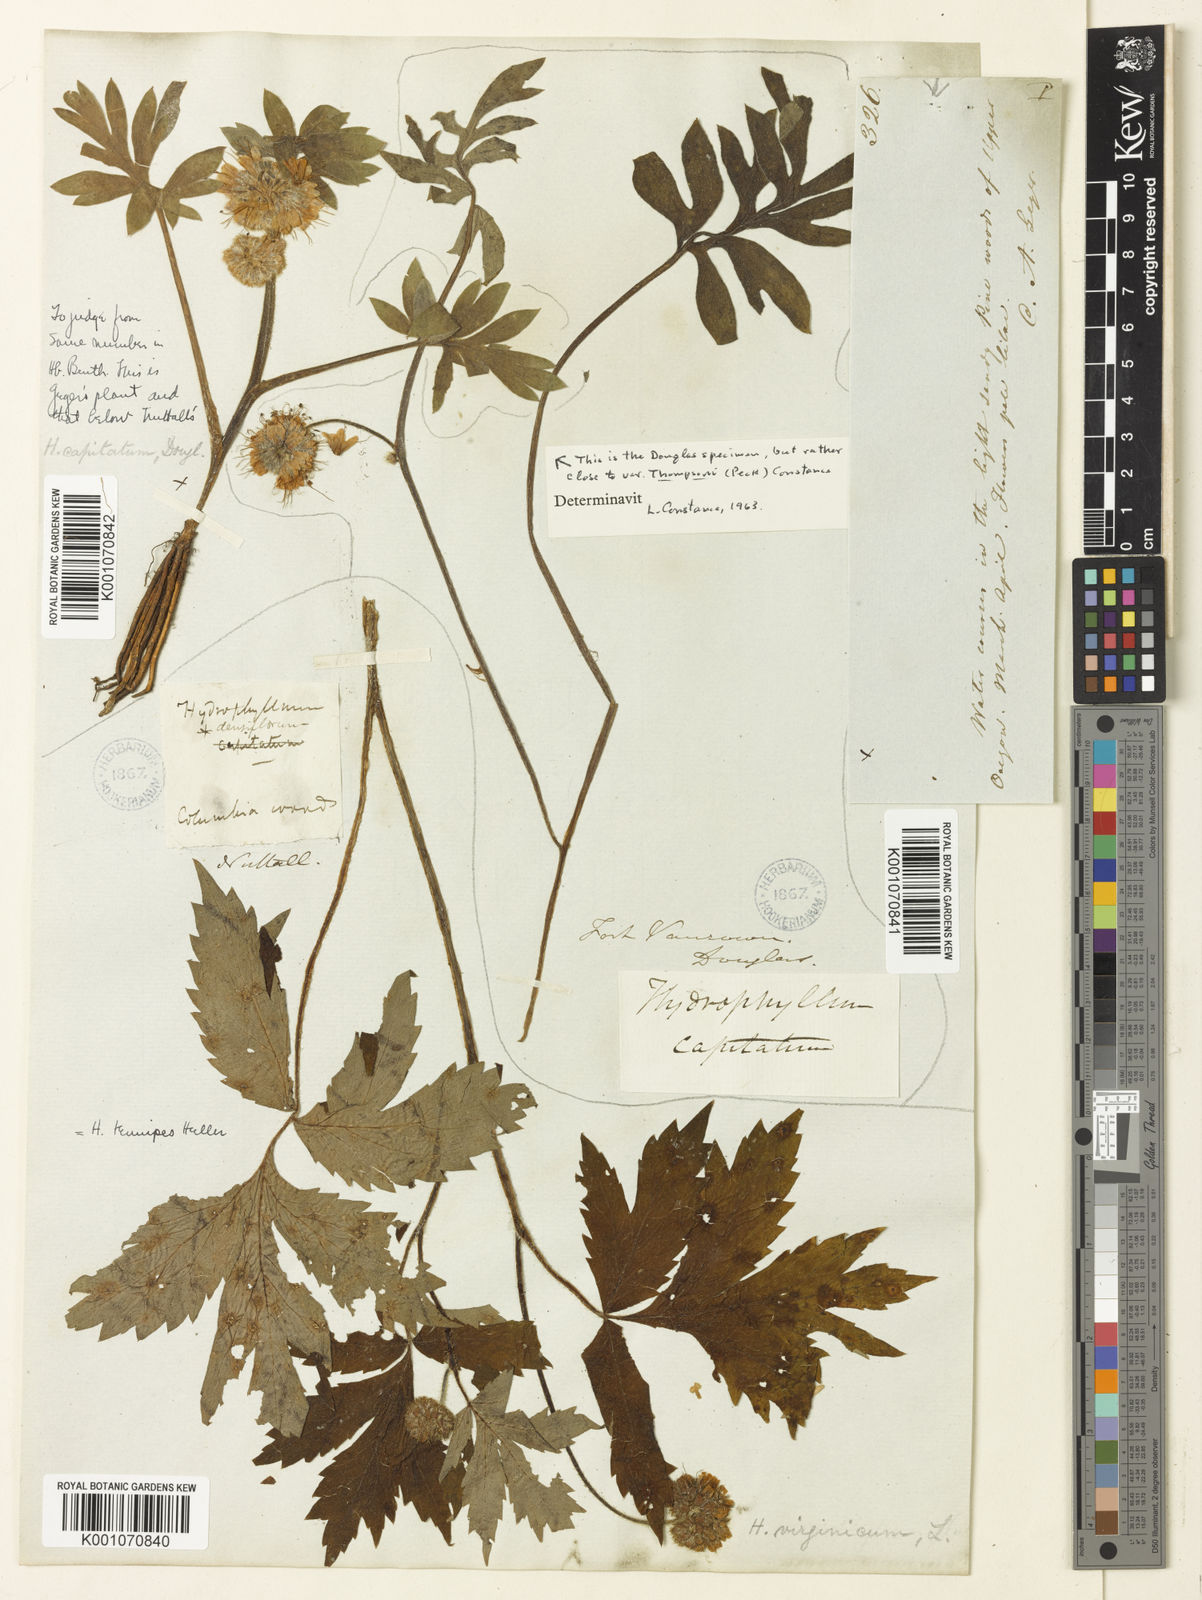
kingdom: Plantae
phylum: Tracheophyta
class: Magnoliopsida
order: Boraginales
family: Hydrophyllaceae
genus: Hydrophyllum
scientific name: Hydrophyllum capitatum
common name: Woollen-breeches
